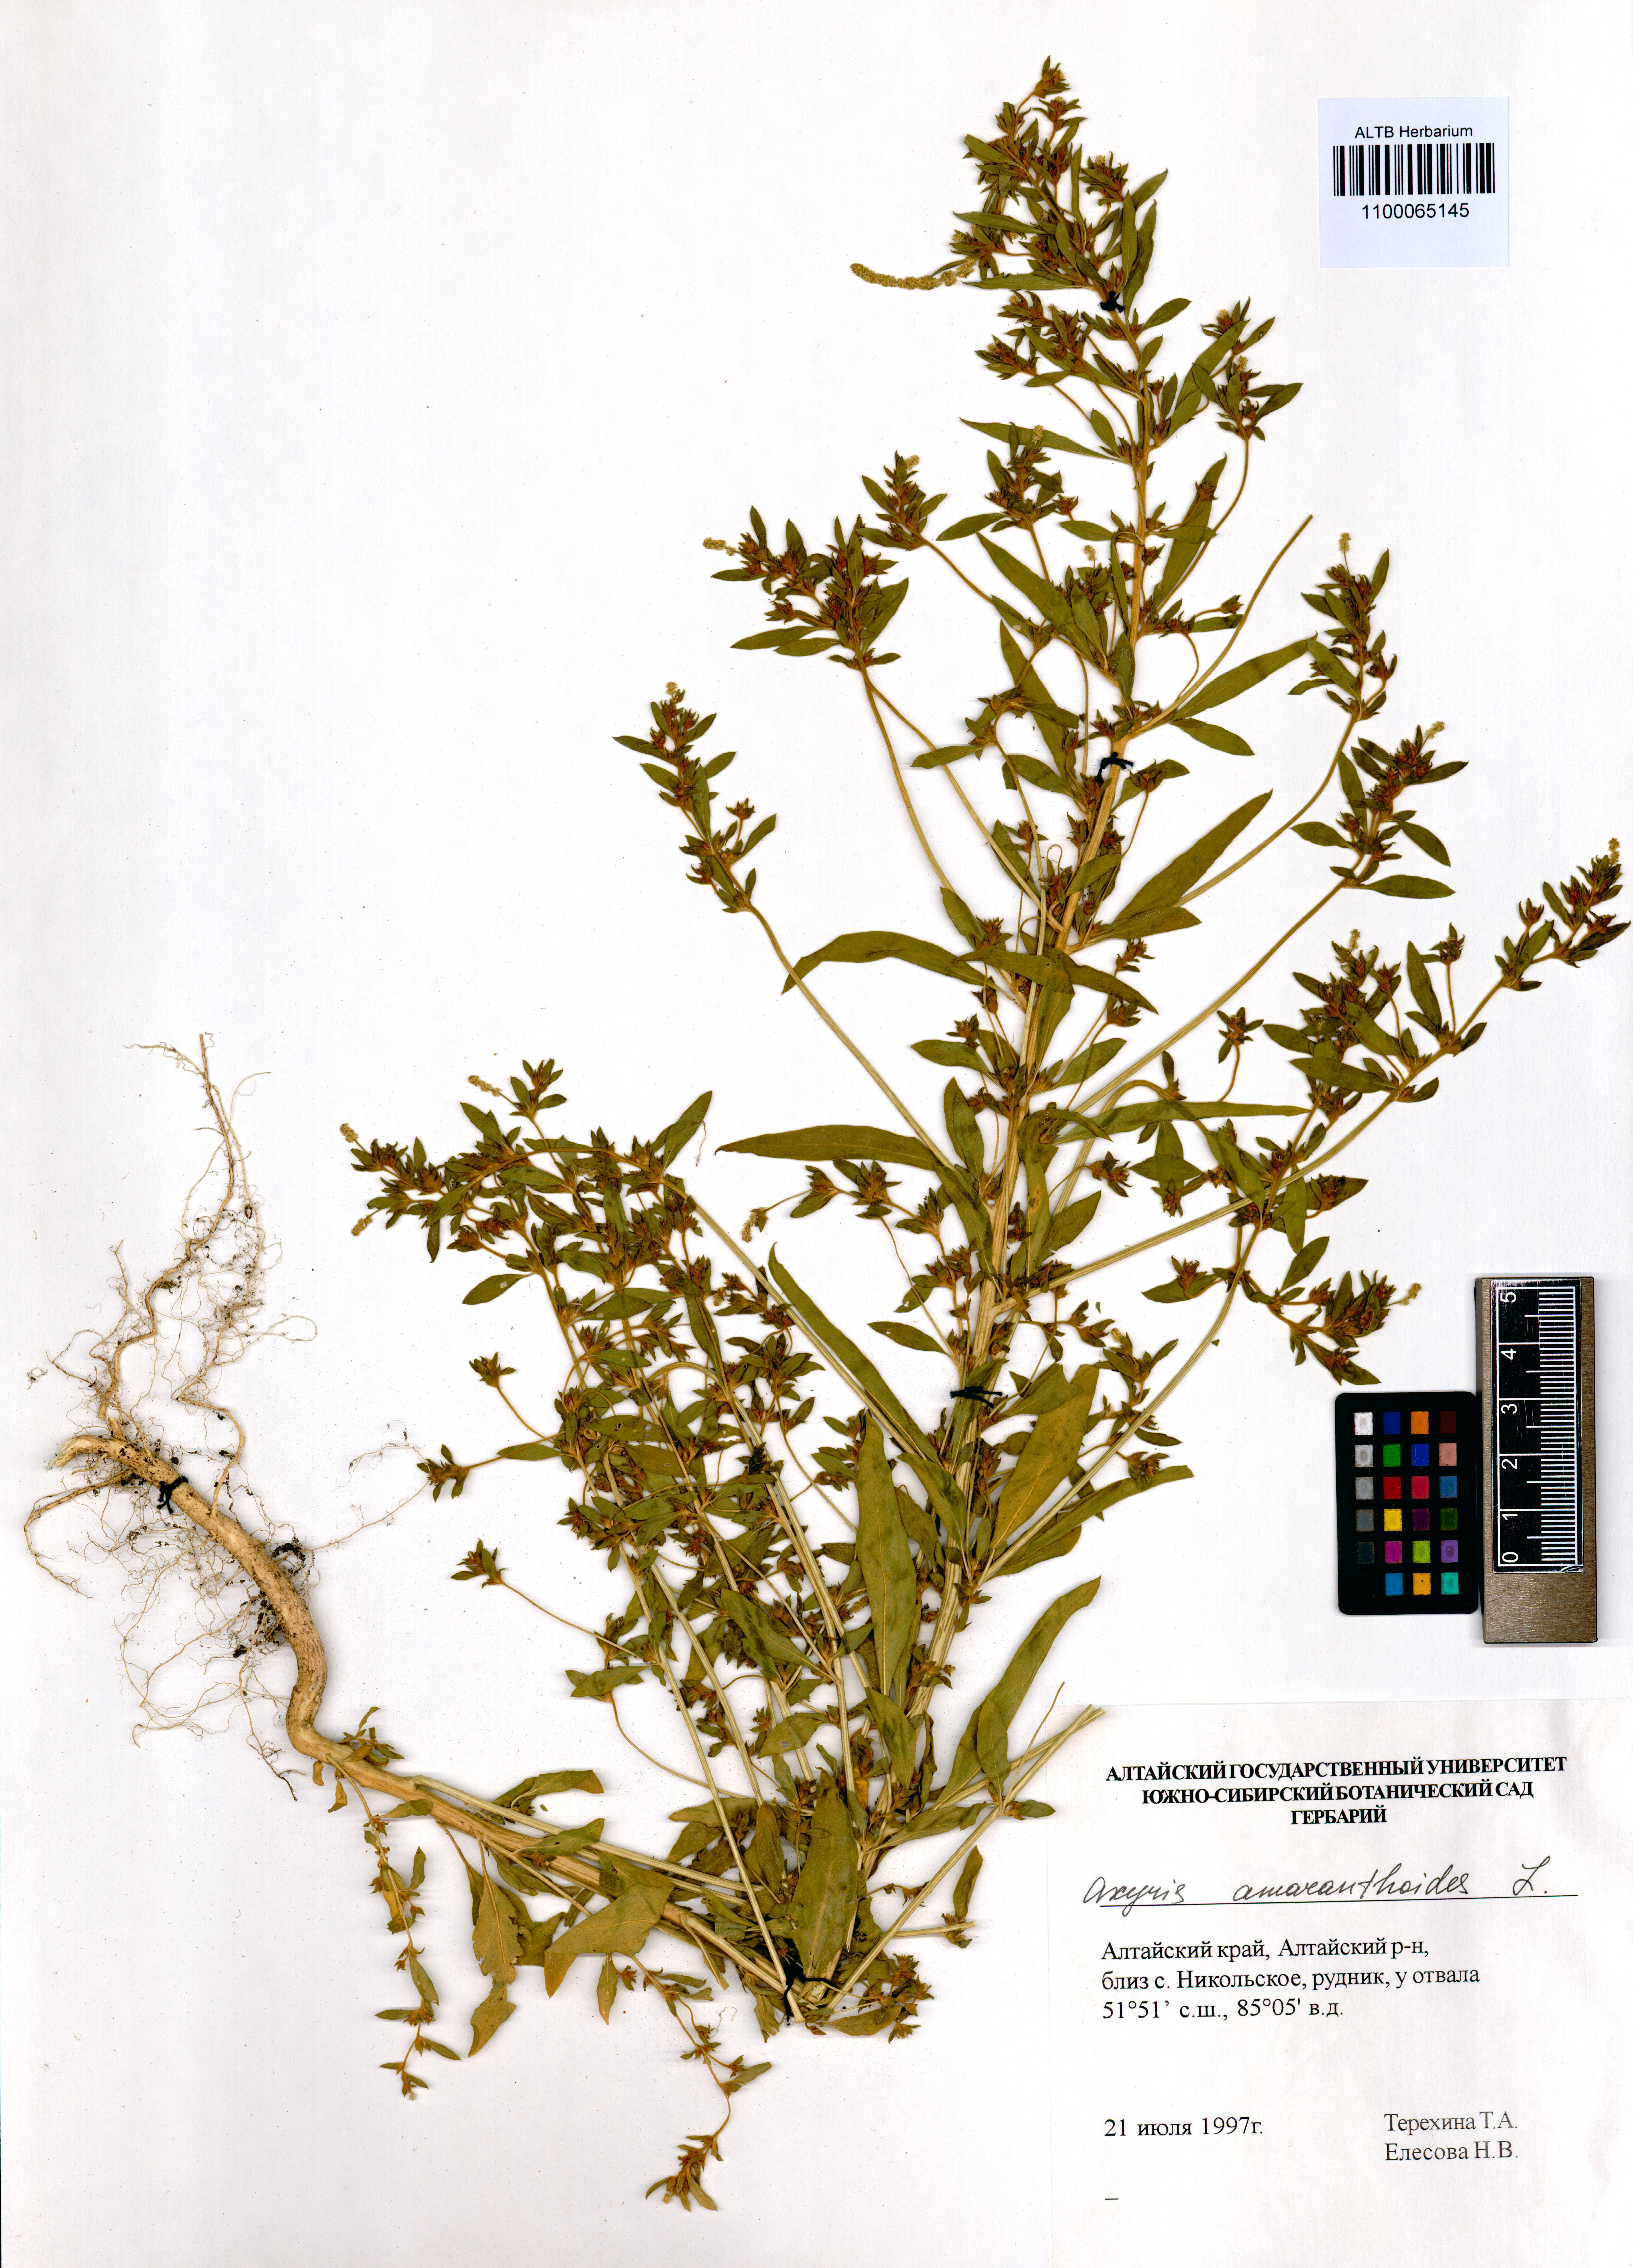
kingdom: Plantae
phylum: Tracheophyta
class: Magnoliopsida
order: Caryophyllales
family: Amaranthaceae
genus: Axyris
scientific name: Axyris amaranthoides
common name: Russian pigweed
